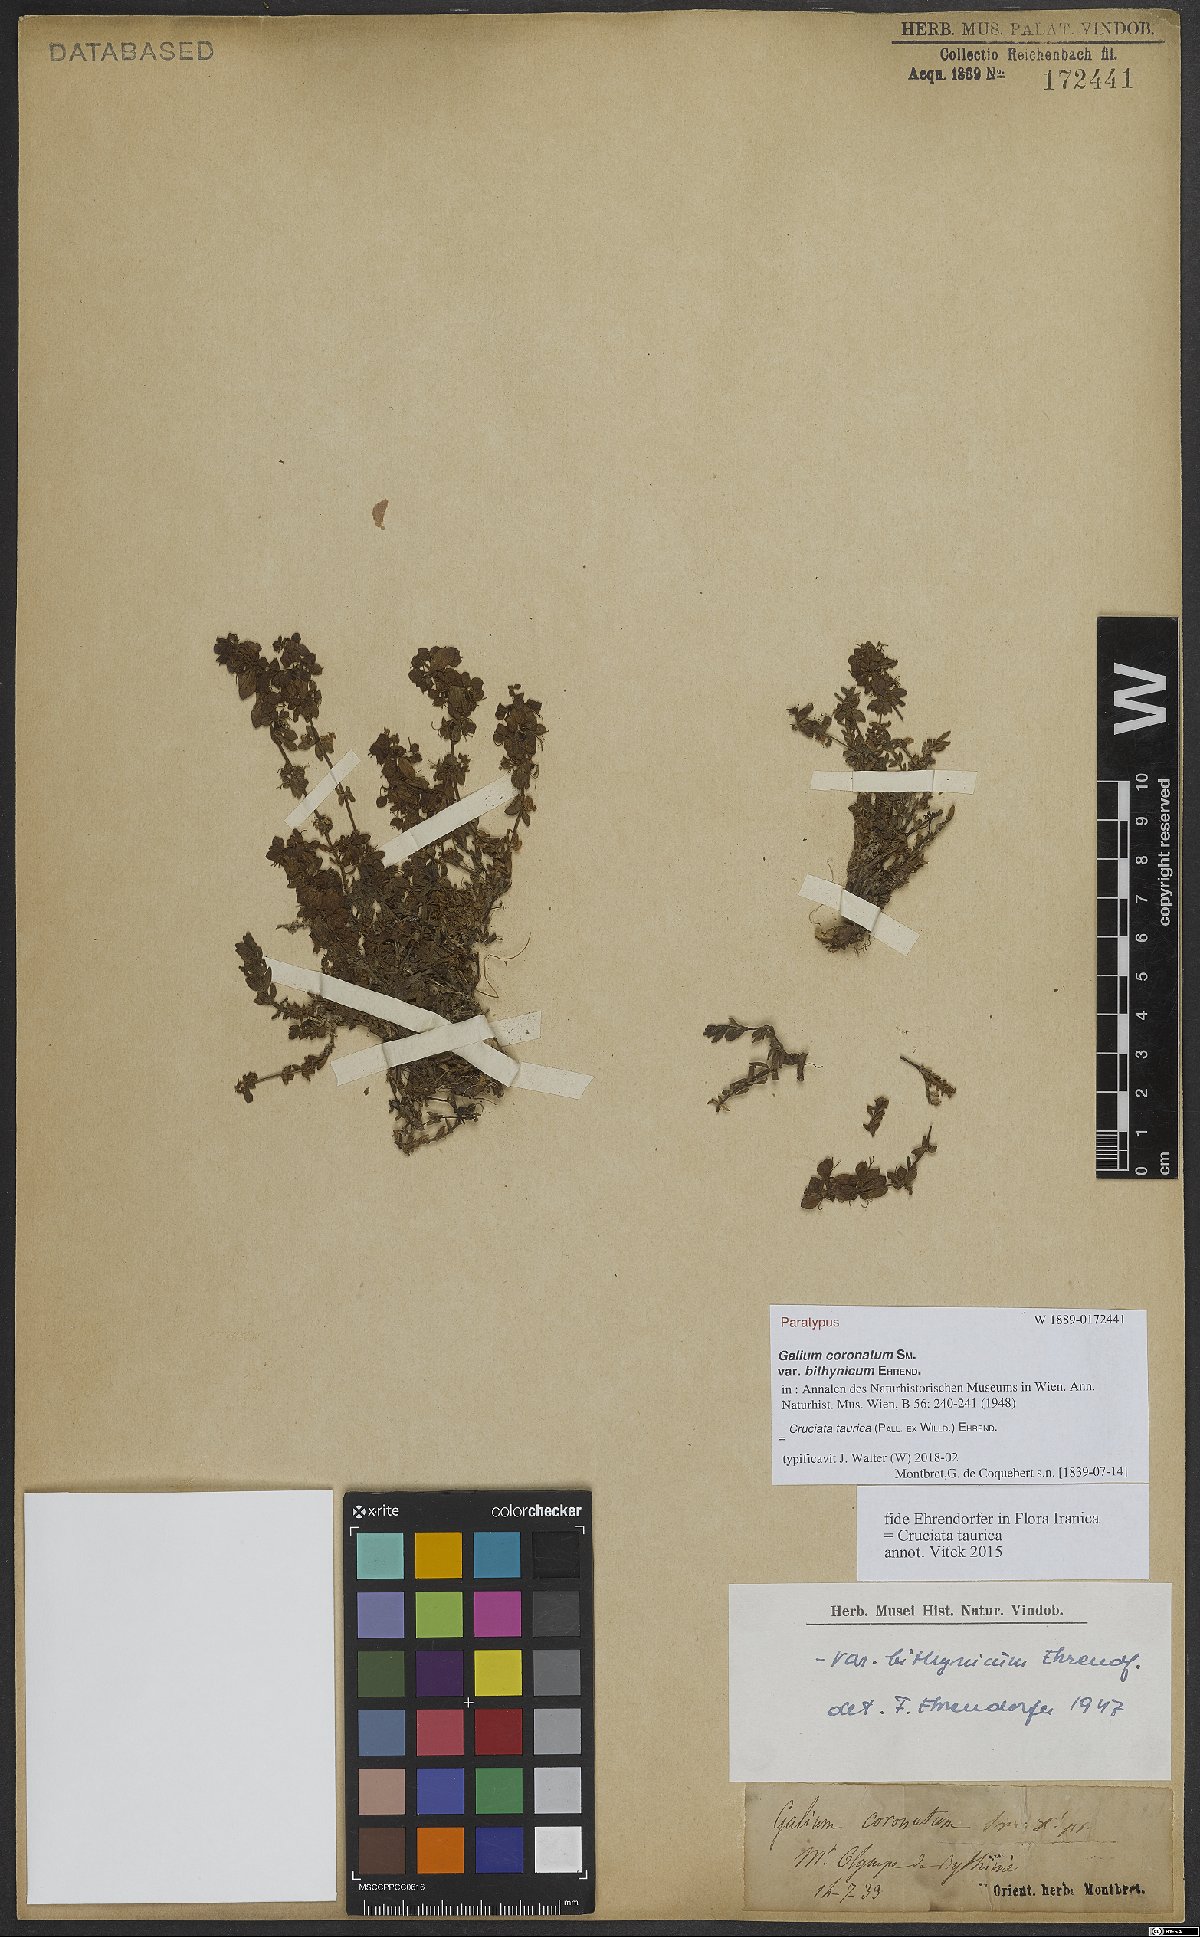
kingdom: Plantae
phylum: Tracheophyta
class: Magnoliopsida
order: Gentianales
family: Rubiaceae
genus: Cruciata
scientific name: Cruciata taurica
